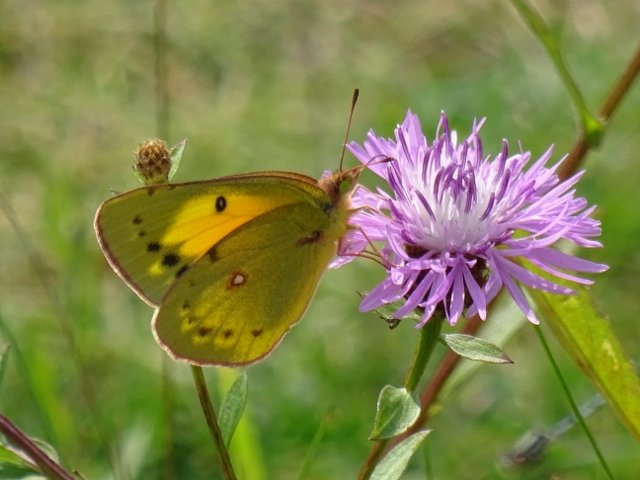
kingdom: Animalia
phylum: Arthropoda
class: Insecta
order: Lepidoptera
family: Pieridae
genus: Colias
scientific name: Colias eurytheme
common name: Orange Sulphur
